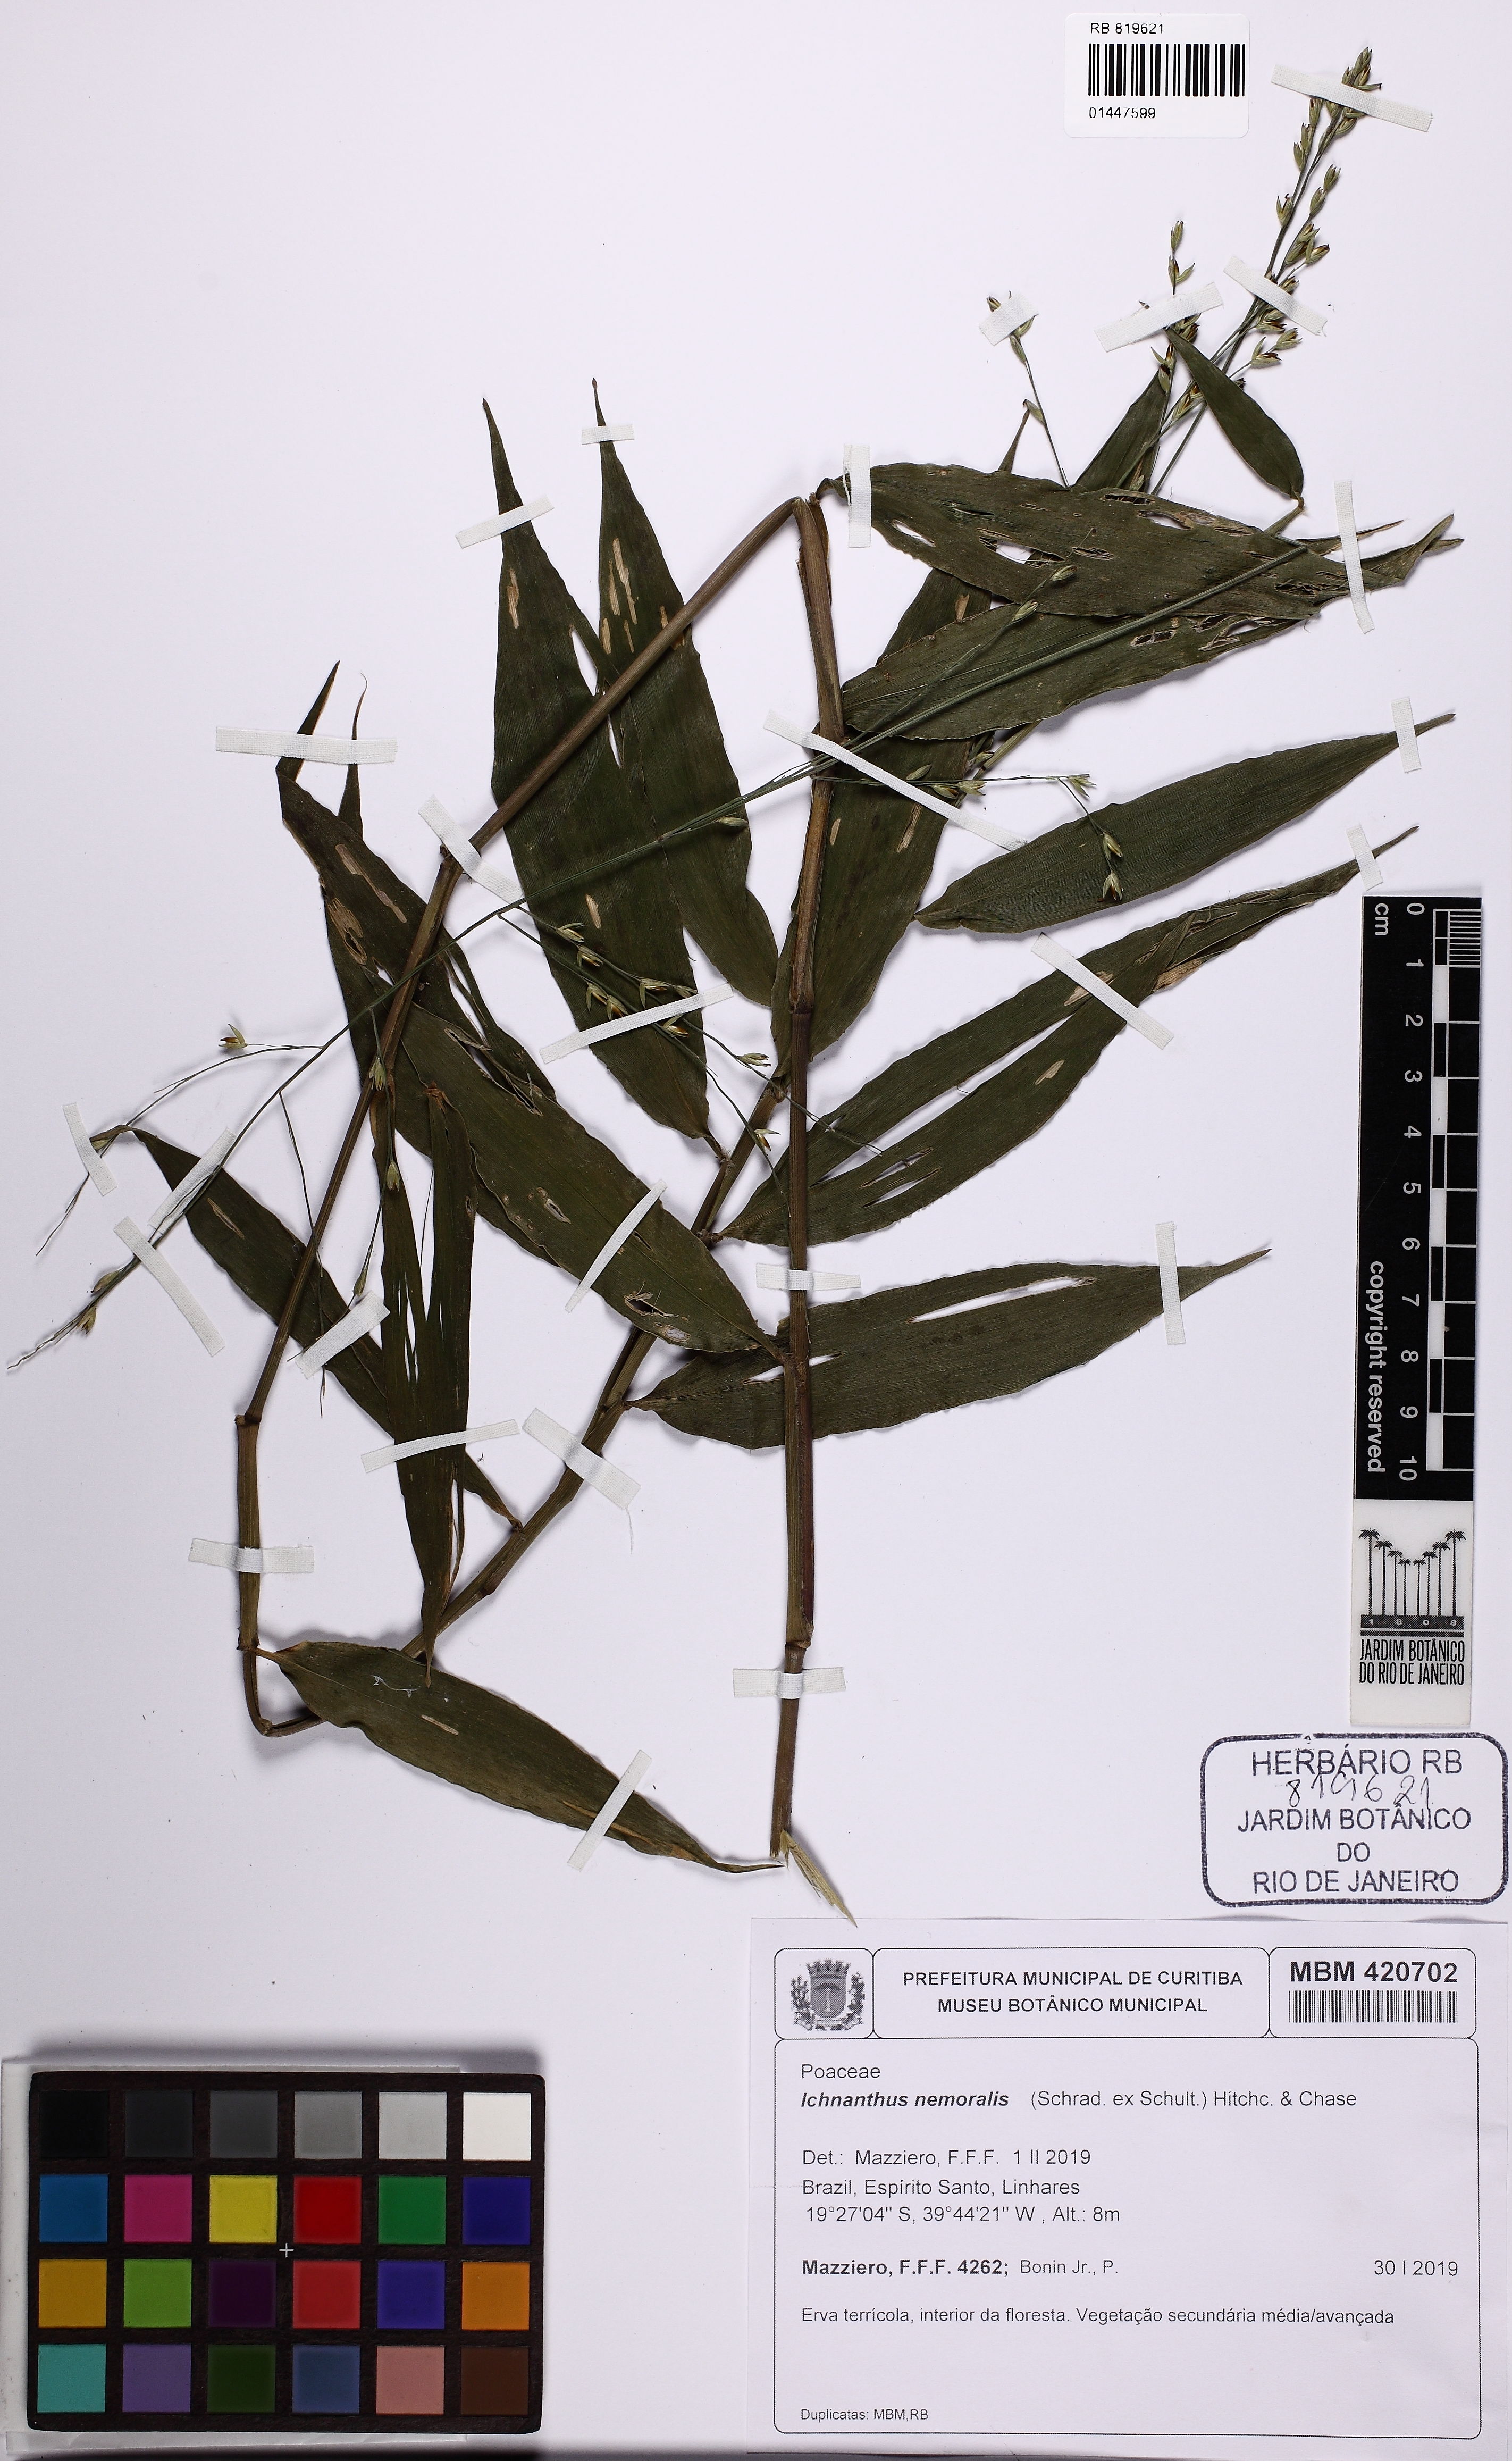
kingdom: Plantae
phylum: Tracheophyta
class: Liliopsida
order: Poales
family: Poaceae
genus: Ichnanthus
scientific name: Ichnanthus nemoralis
